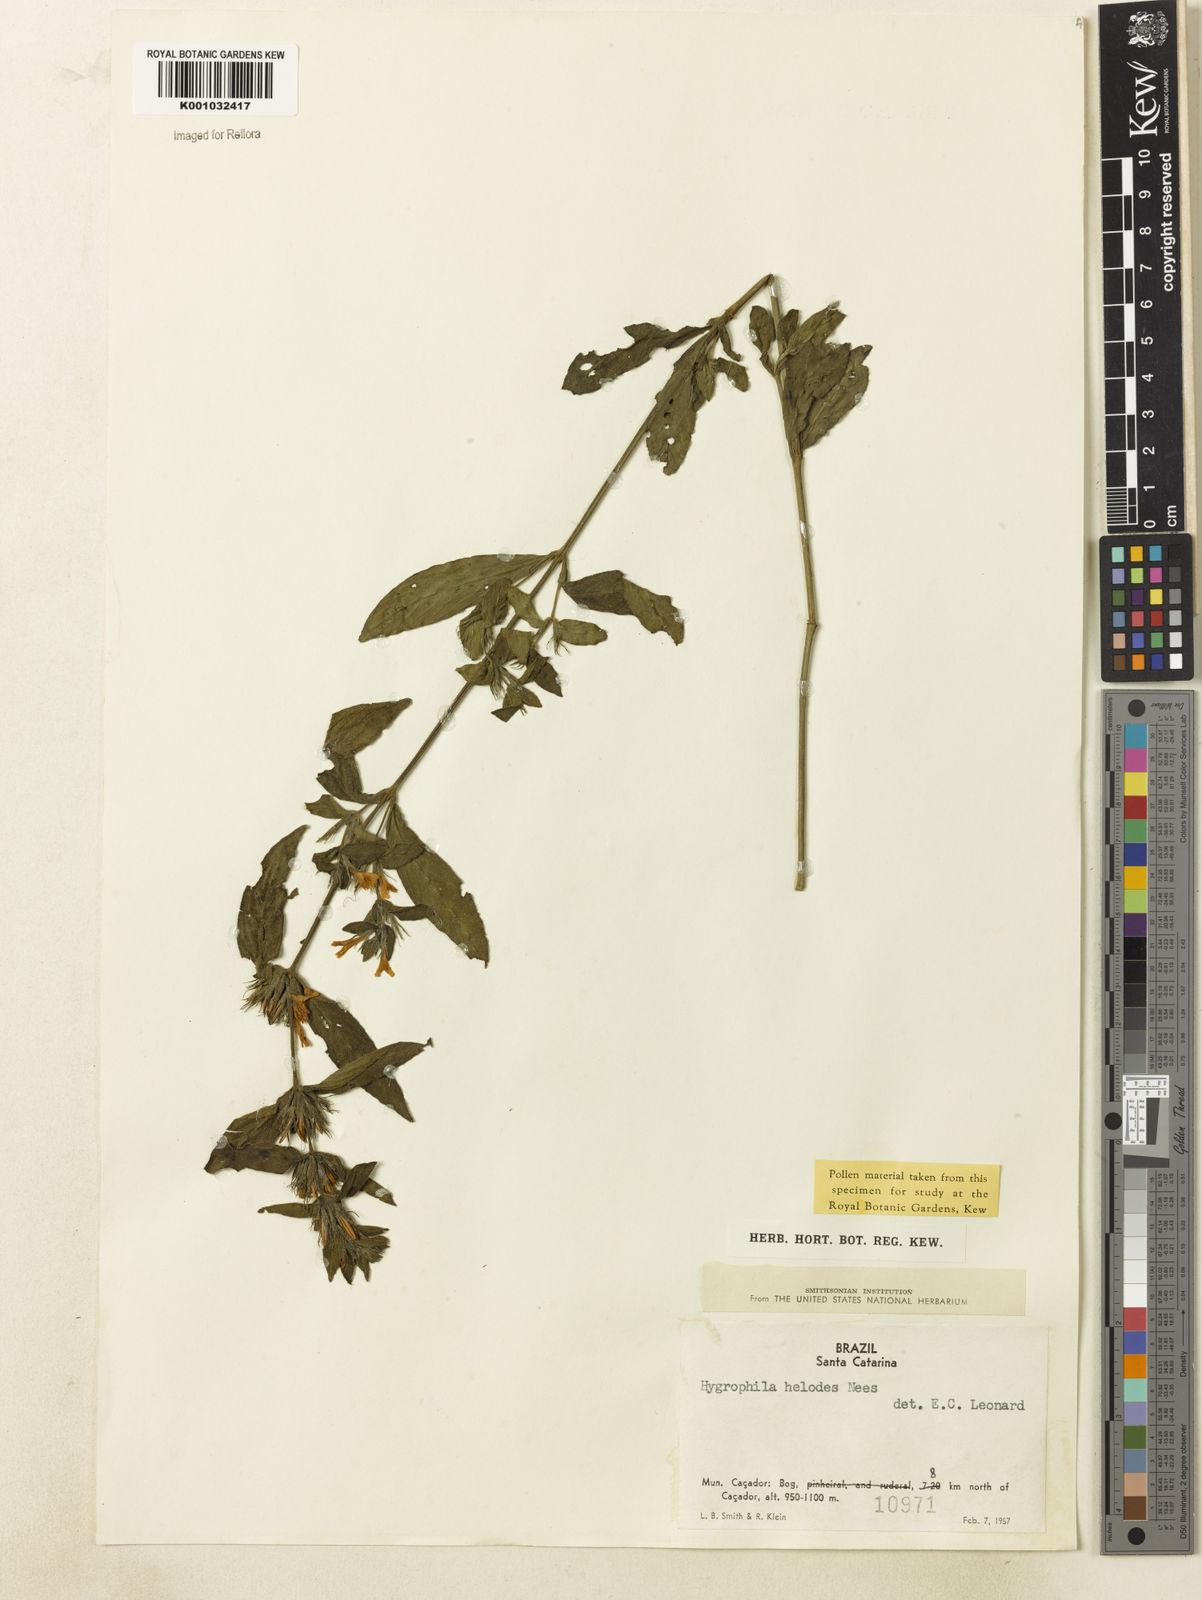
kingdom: Plantae
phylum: Tracheophyta
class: Magnoliopsida
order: Lamiales
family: Acanthaceae
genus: Hygrophila
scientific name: Hygrophila costata
